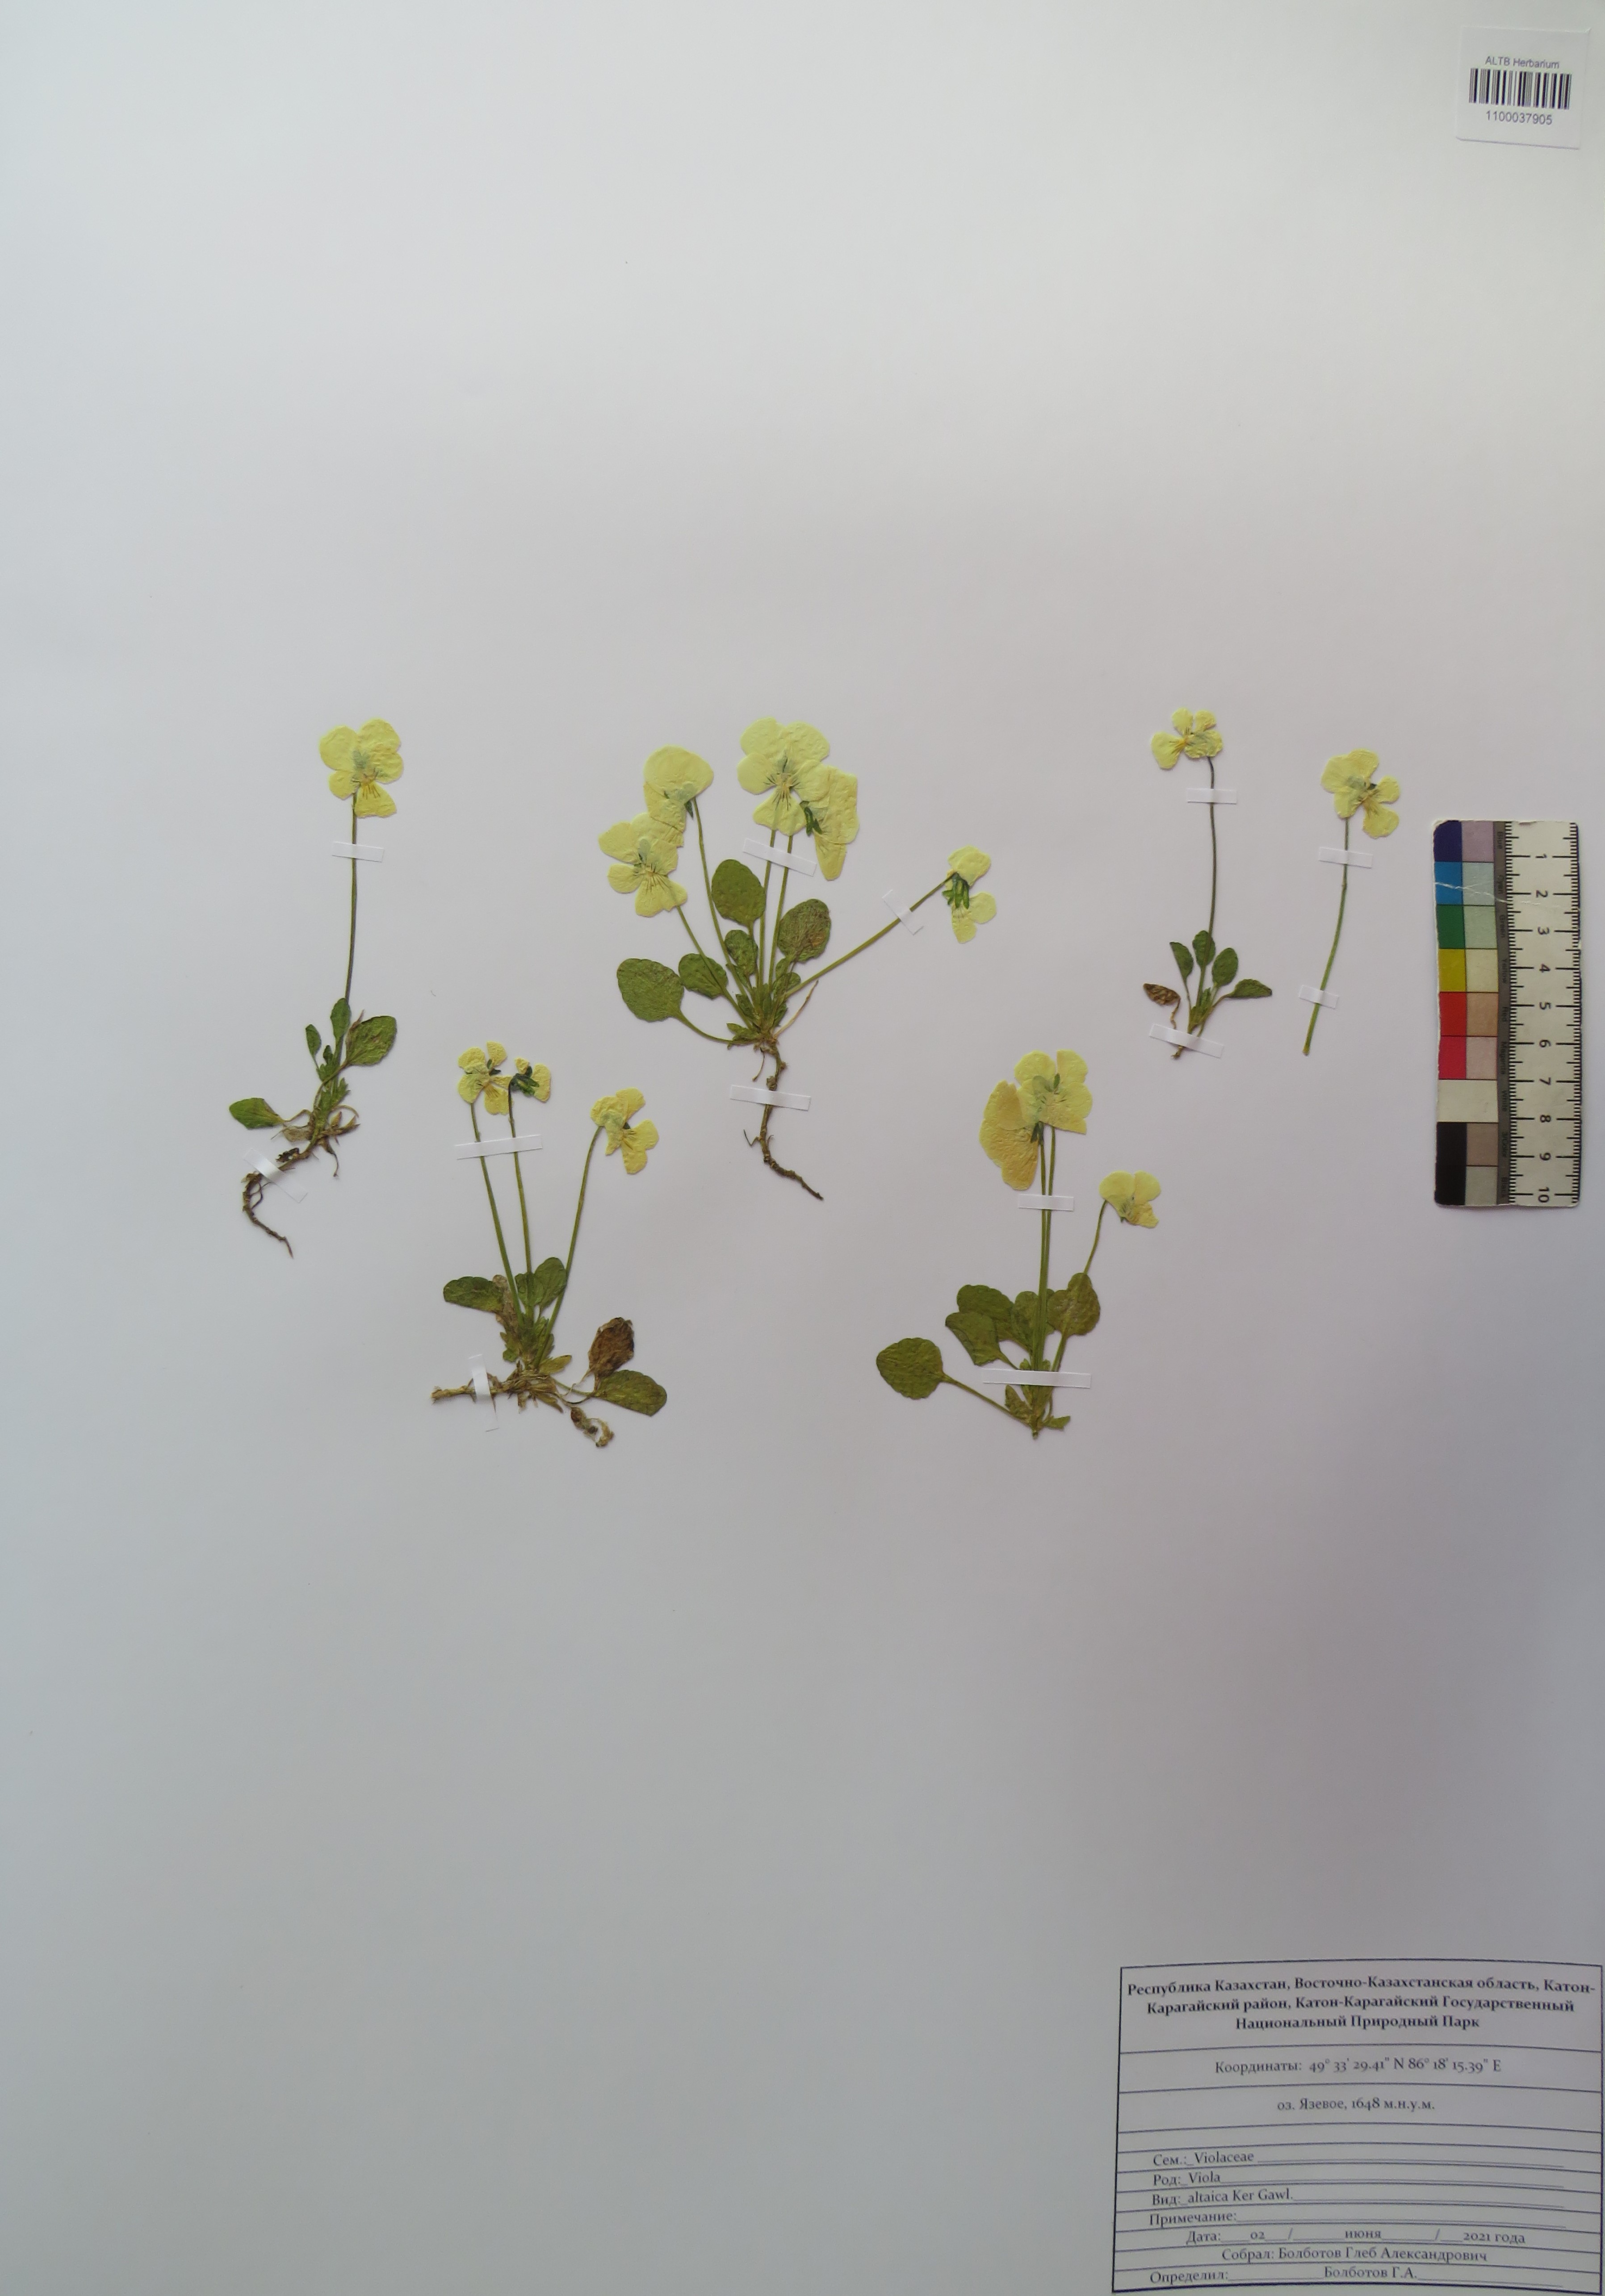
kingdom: Plantae
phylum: Tracheophyta
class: Magnoliopsida
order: Malpighiales
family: Violaceae
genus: Viola
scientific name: Viola altaica
